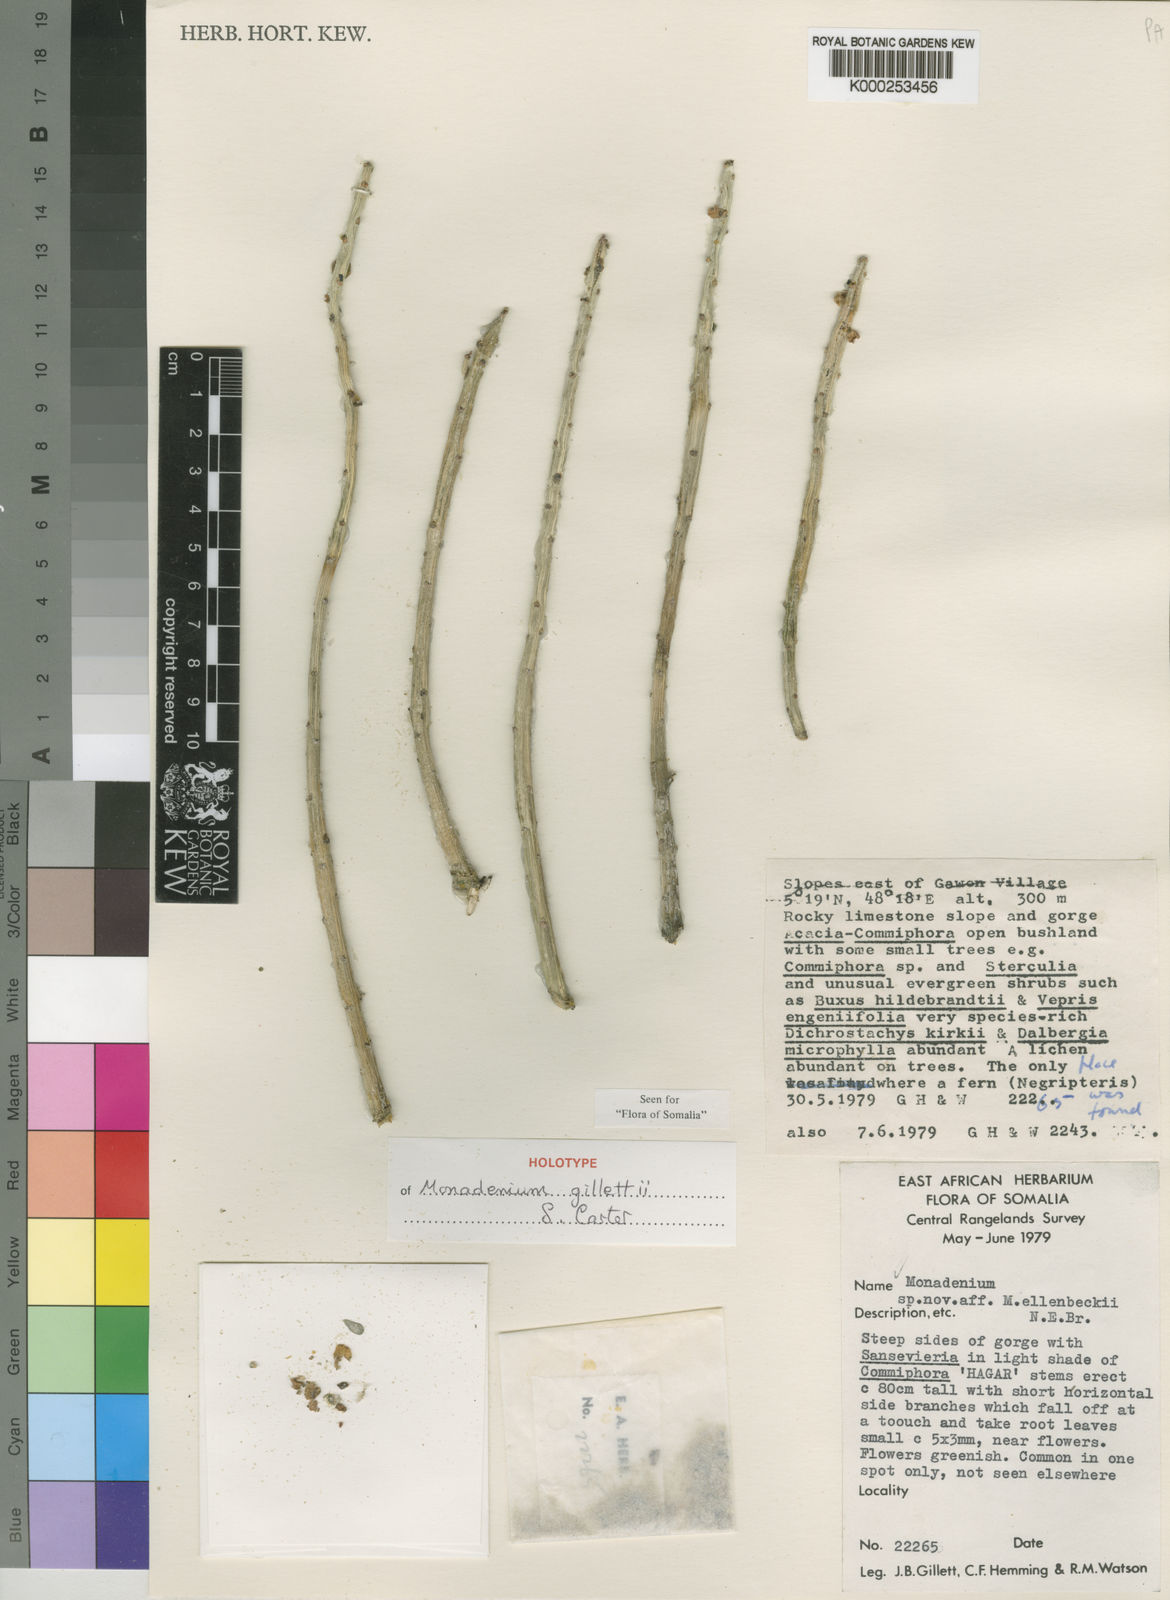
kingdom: Plantae
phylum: Tracheophyta
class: Magnoliopsida
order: Malpighiales
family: Euphorbiaceae
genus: Euphorbia
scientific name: Euphorbia neogillettii
